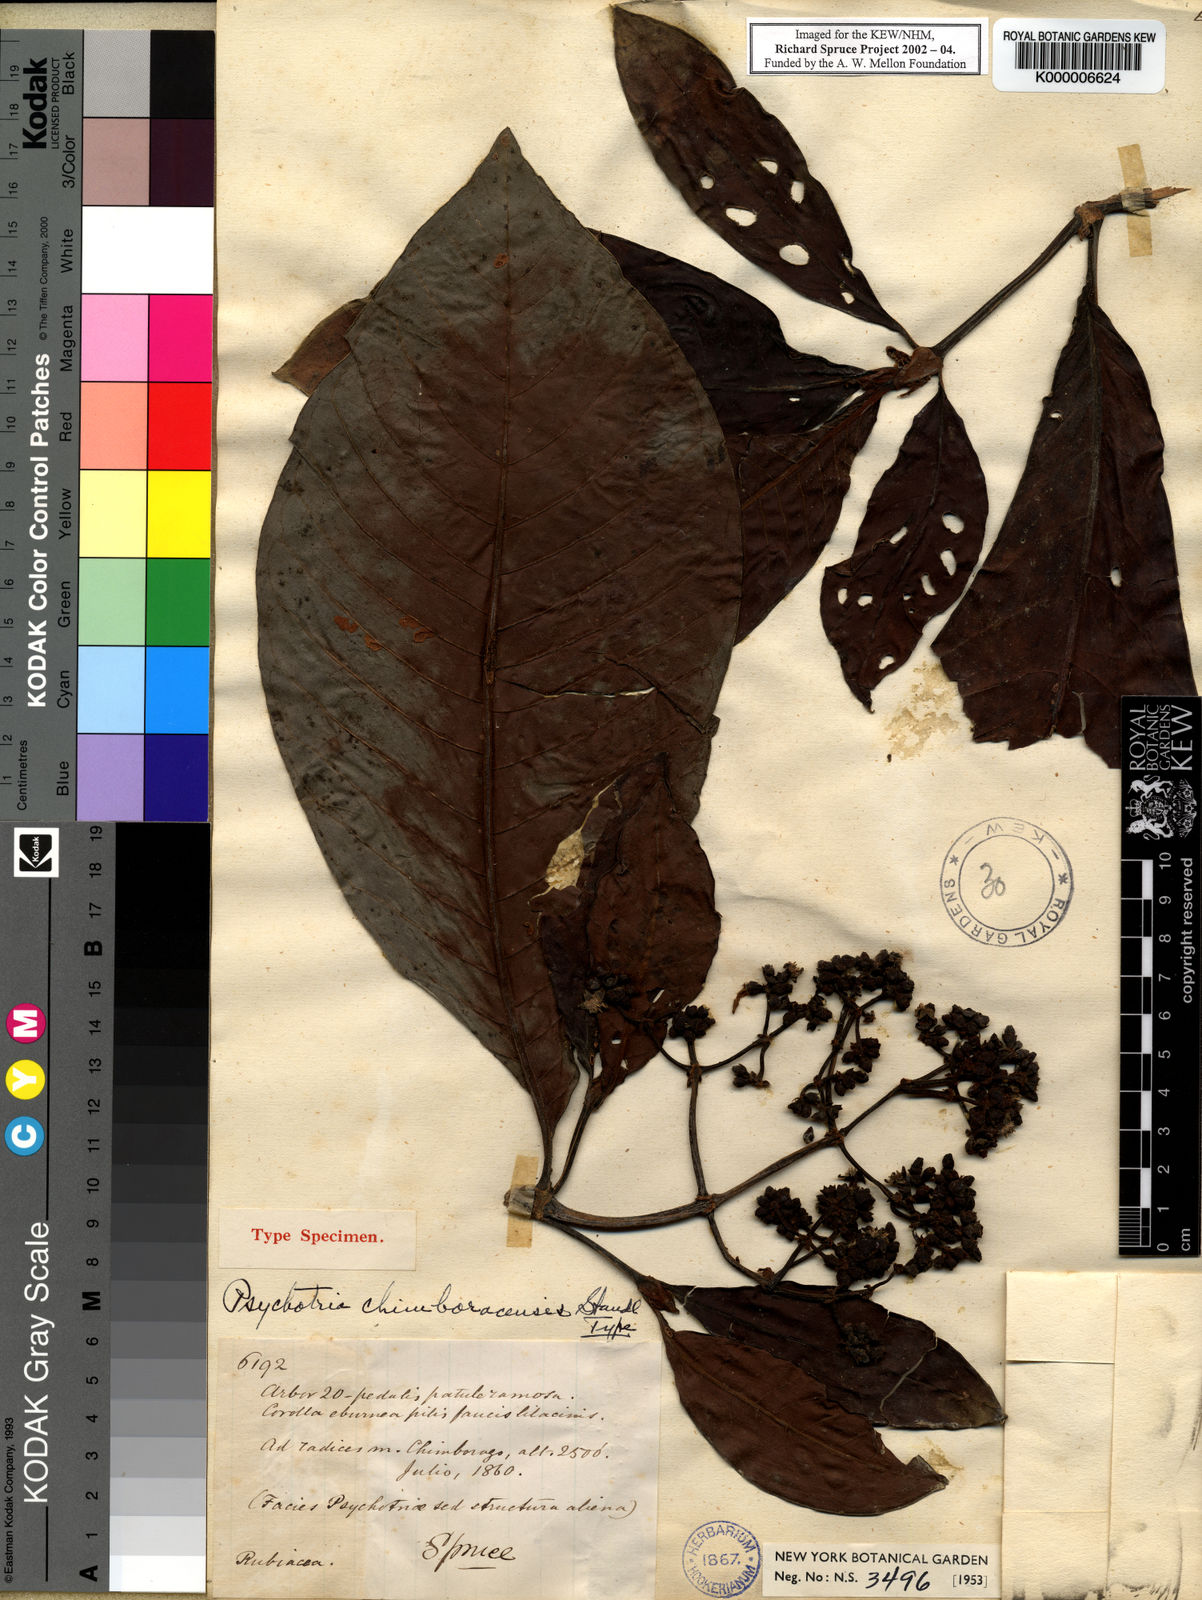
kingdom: Plantae
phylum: Tracheophyta
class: Magnoliopsida
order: Gentianales
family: Rubiaceae
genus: Psychotria
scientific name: Psychotria chimboracensis
